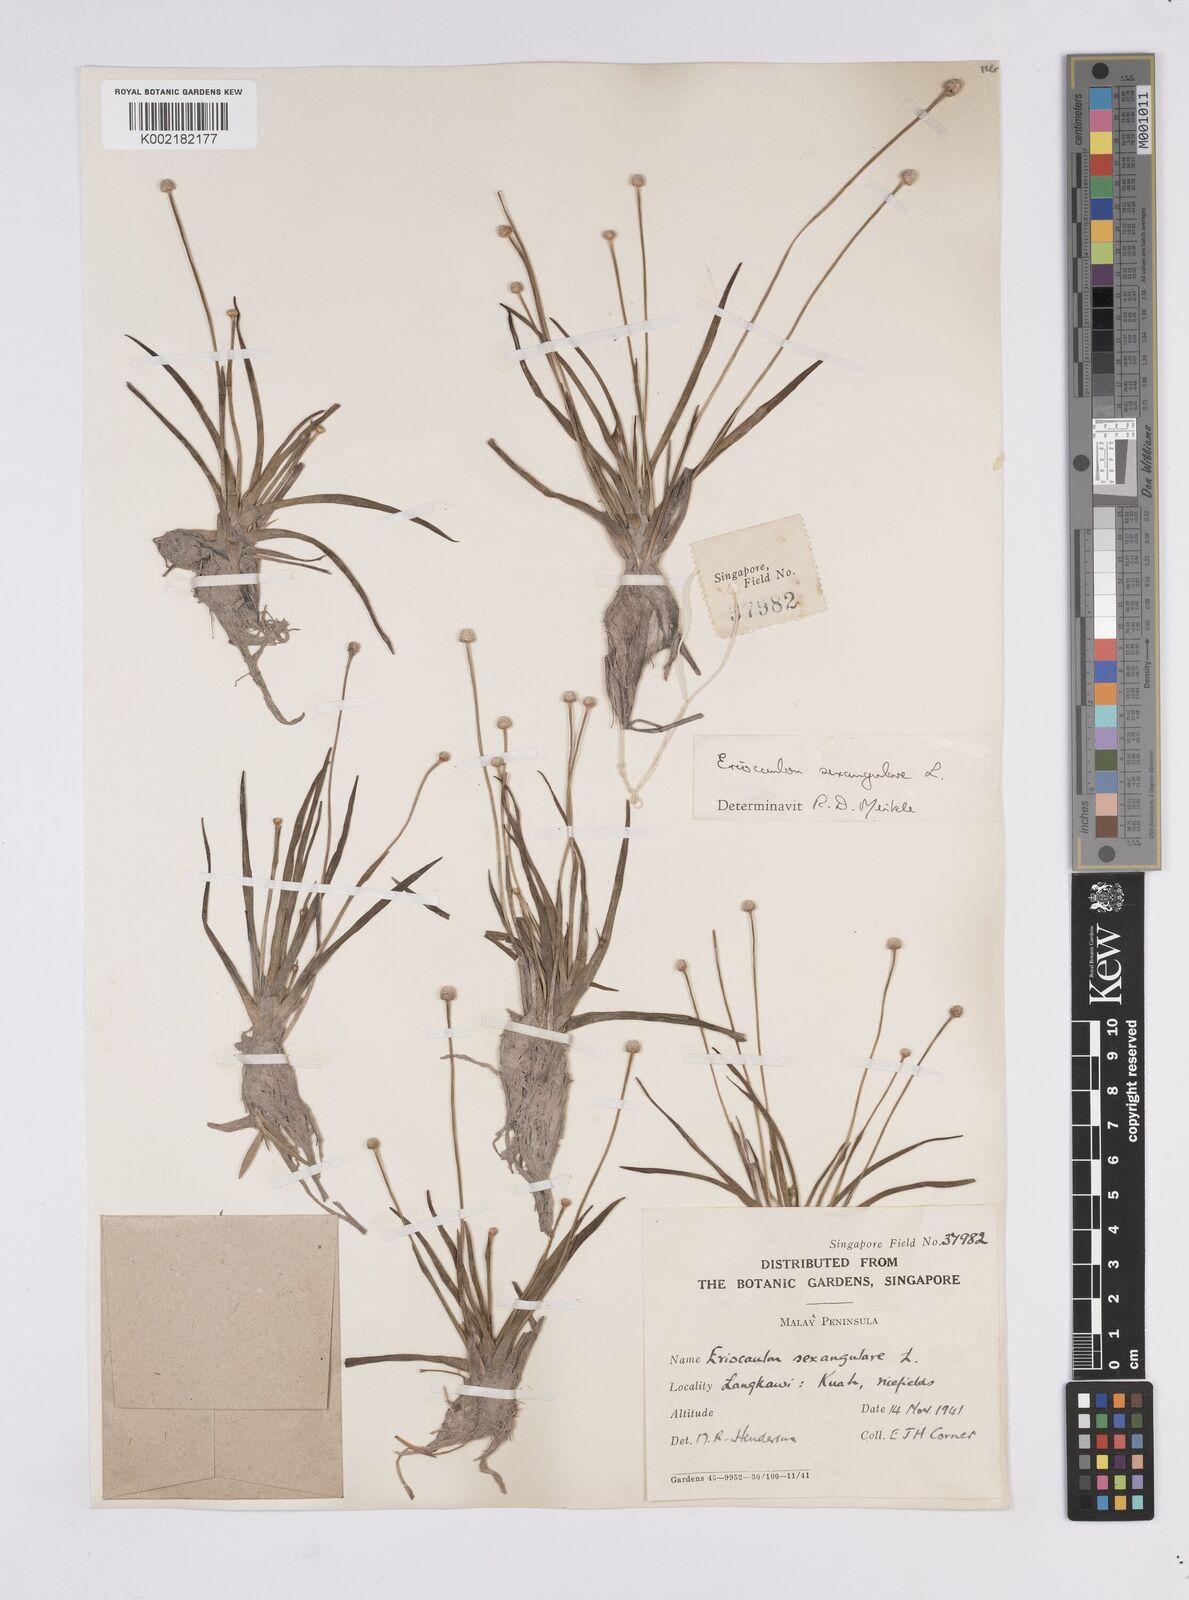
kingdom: Plantae
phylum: Tracheophyta
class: Liliopsida
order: Poales
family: Eriocaulaceae
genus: Eriocaulon
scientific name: Eriocaulon sexangulare
